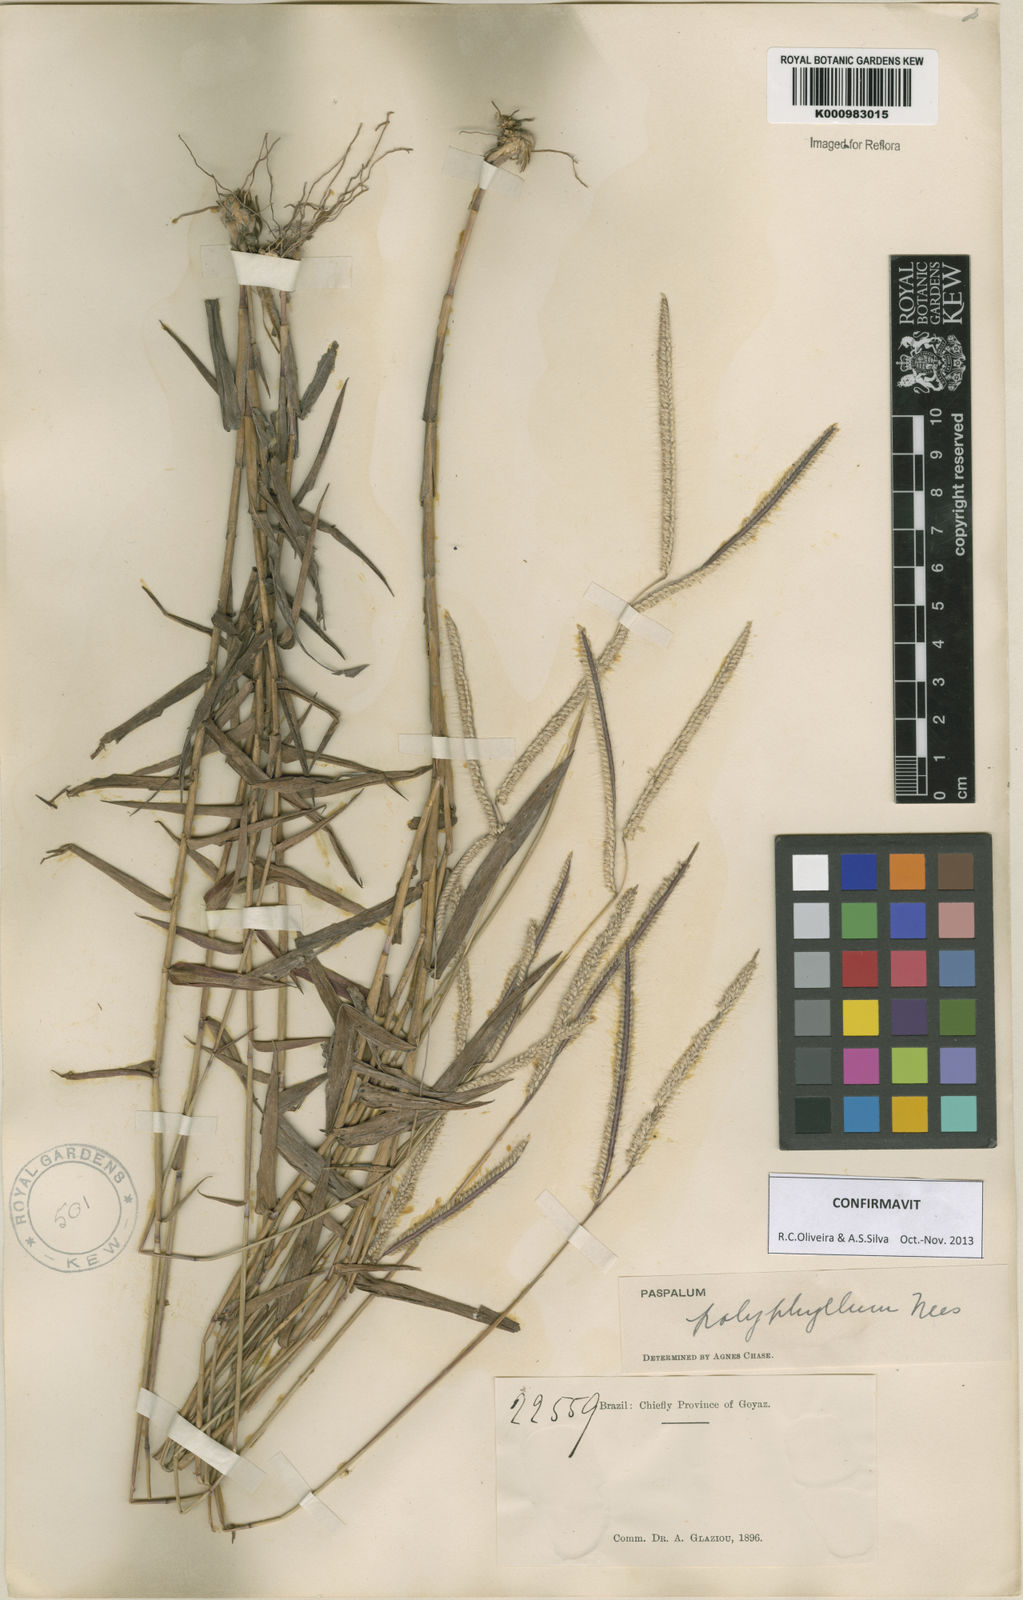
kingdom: Plantae
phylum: Tracheophyta
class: Liliopsida
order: Poales
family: Poaceae
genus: Paspalum
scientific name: Paspalum
